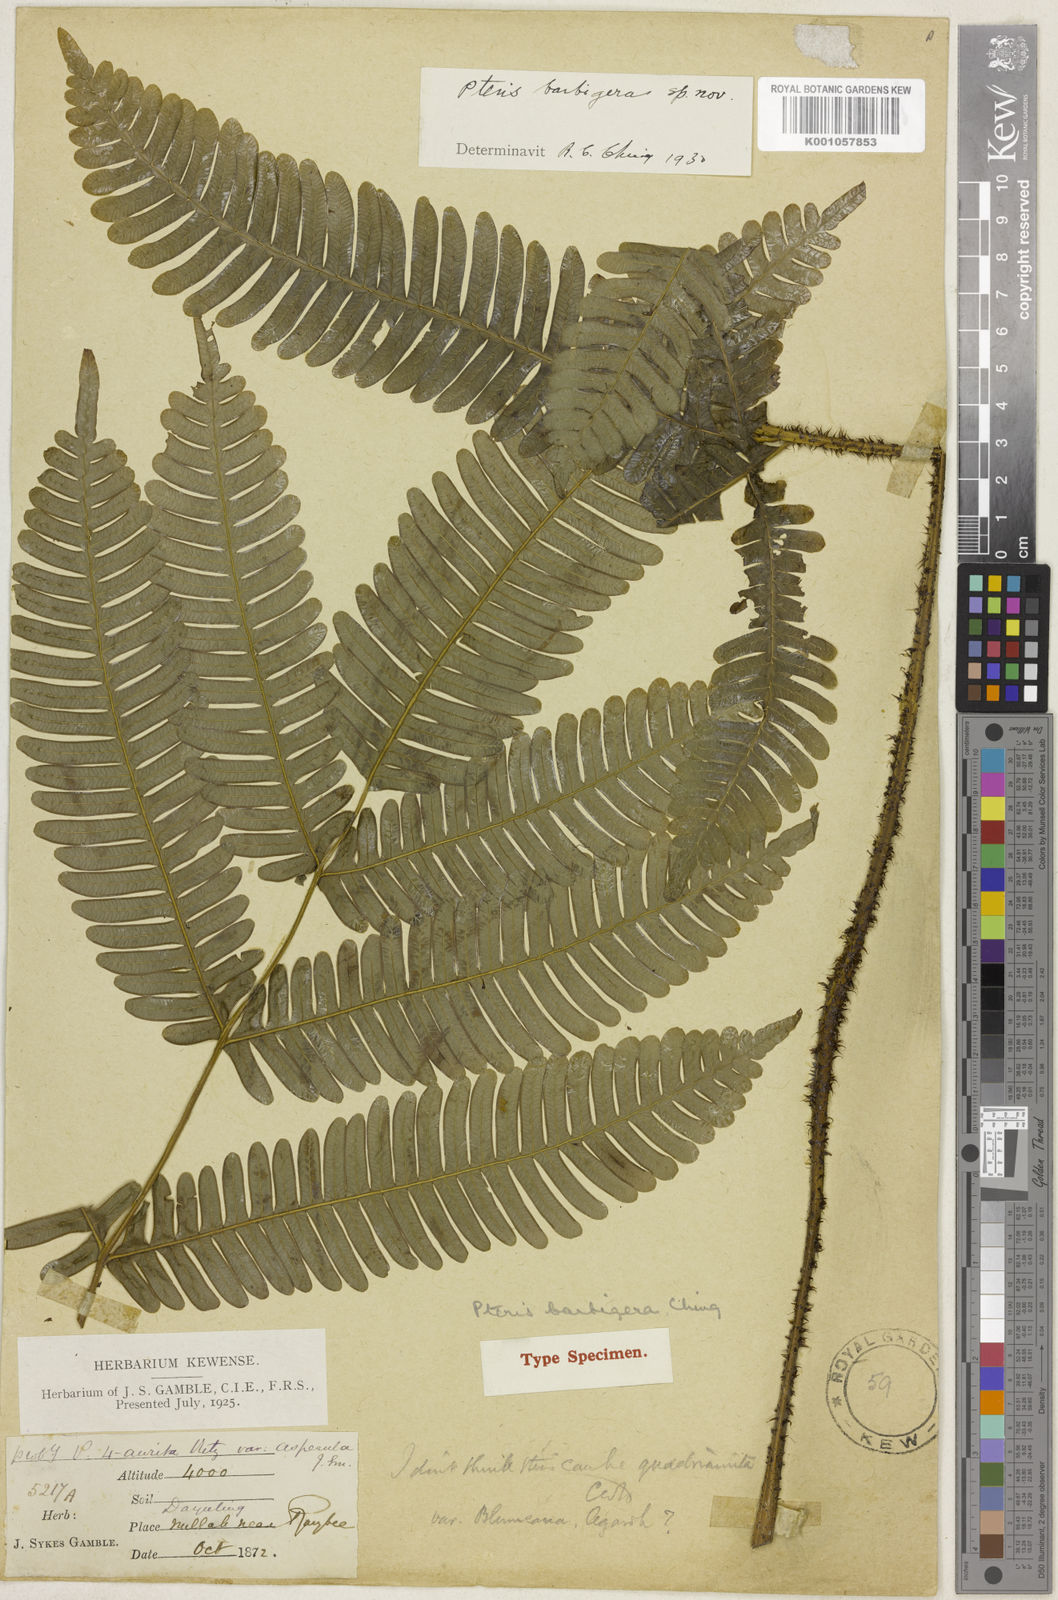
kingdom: Plantae
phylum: Tracheophyta
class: Polypodiopsida
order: Polypodiales
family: Pteridaceae
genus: Pteris
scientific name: Pteris barbigera
